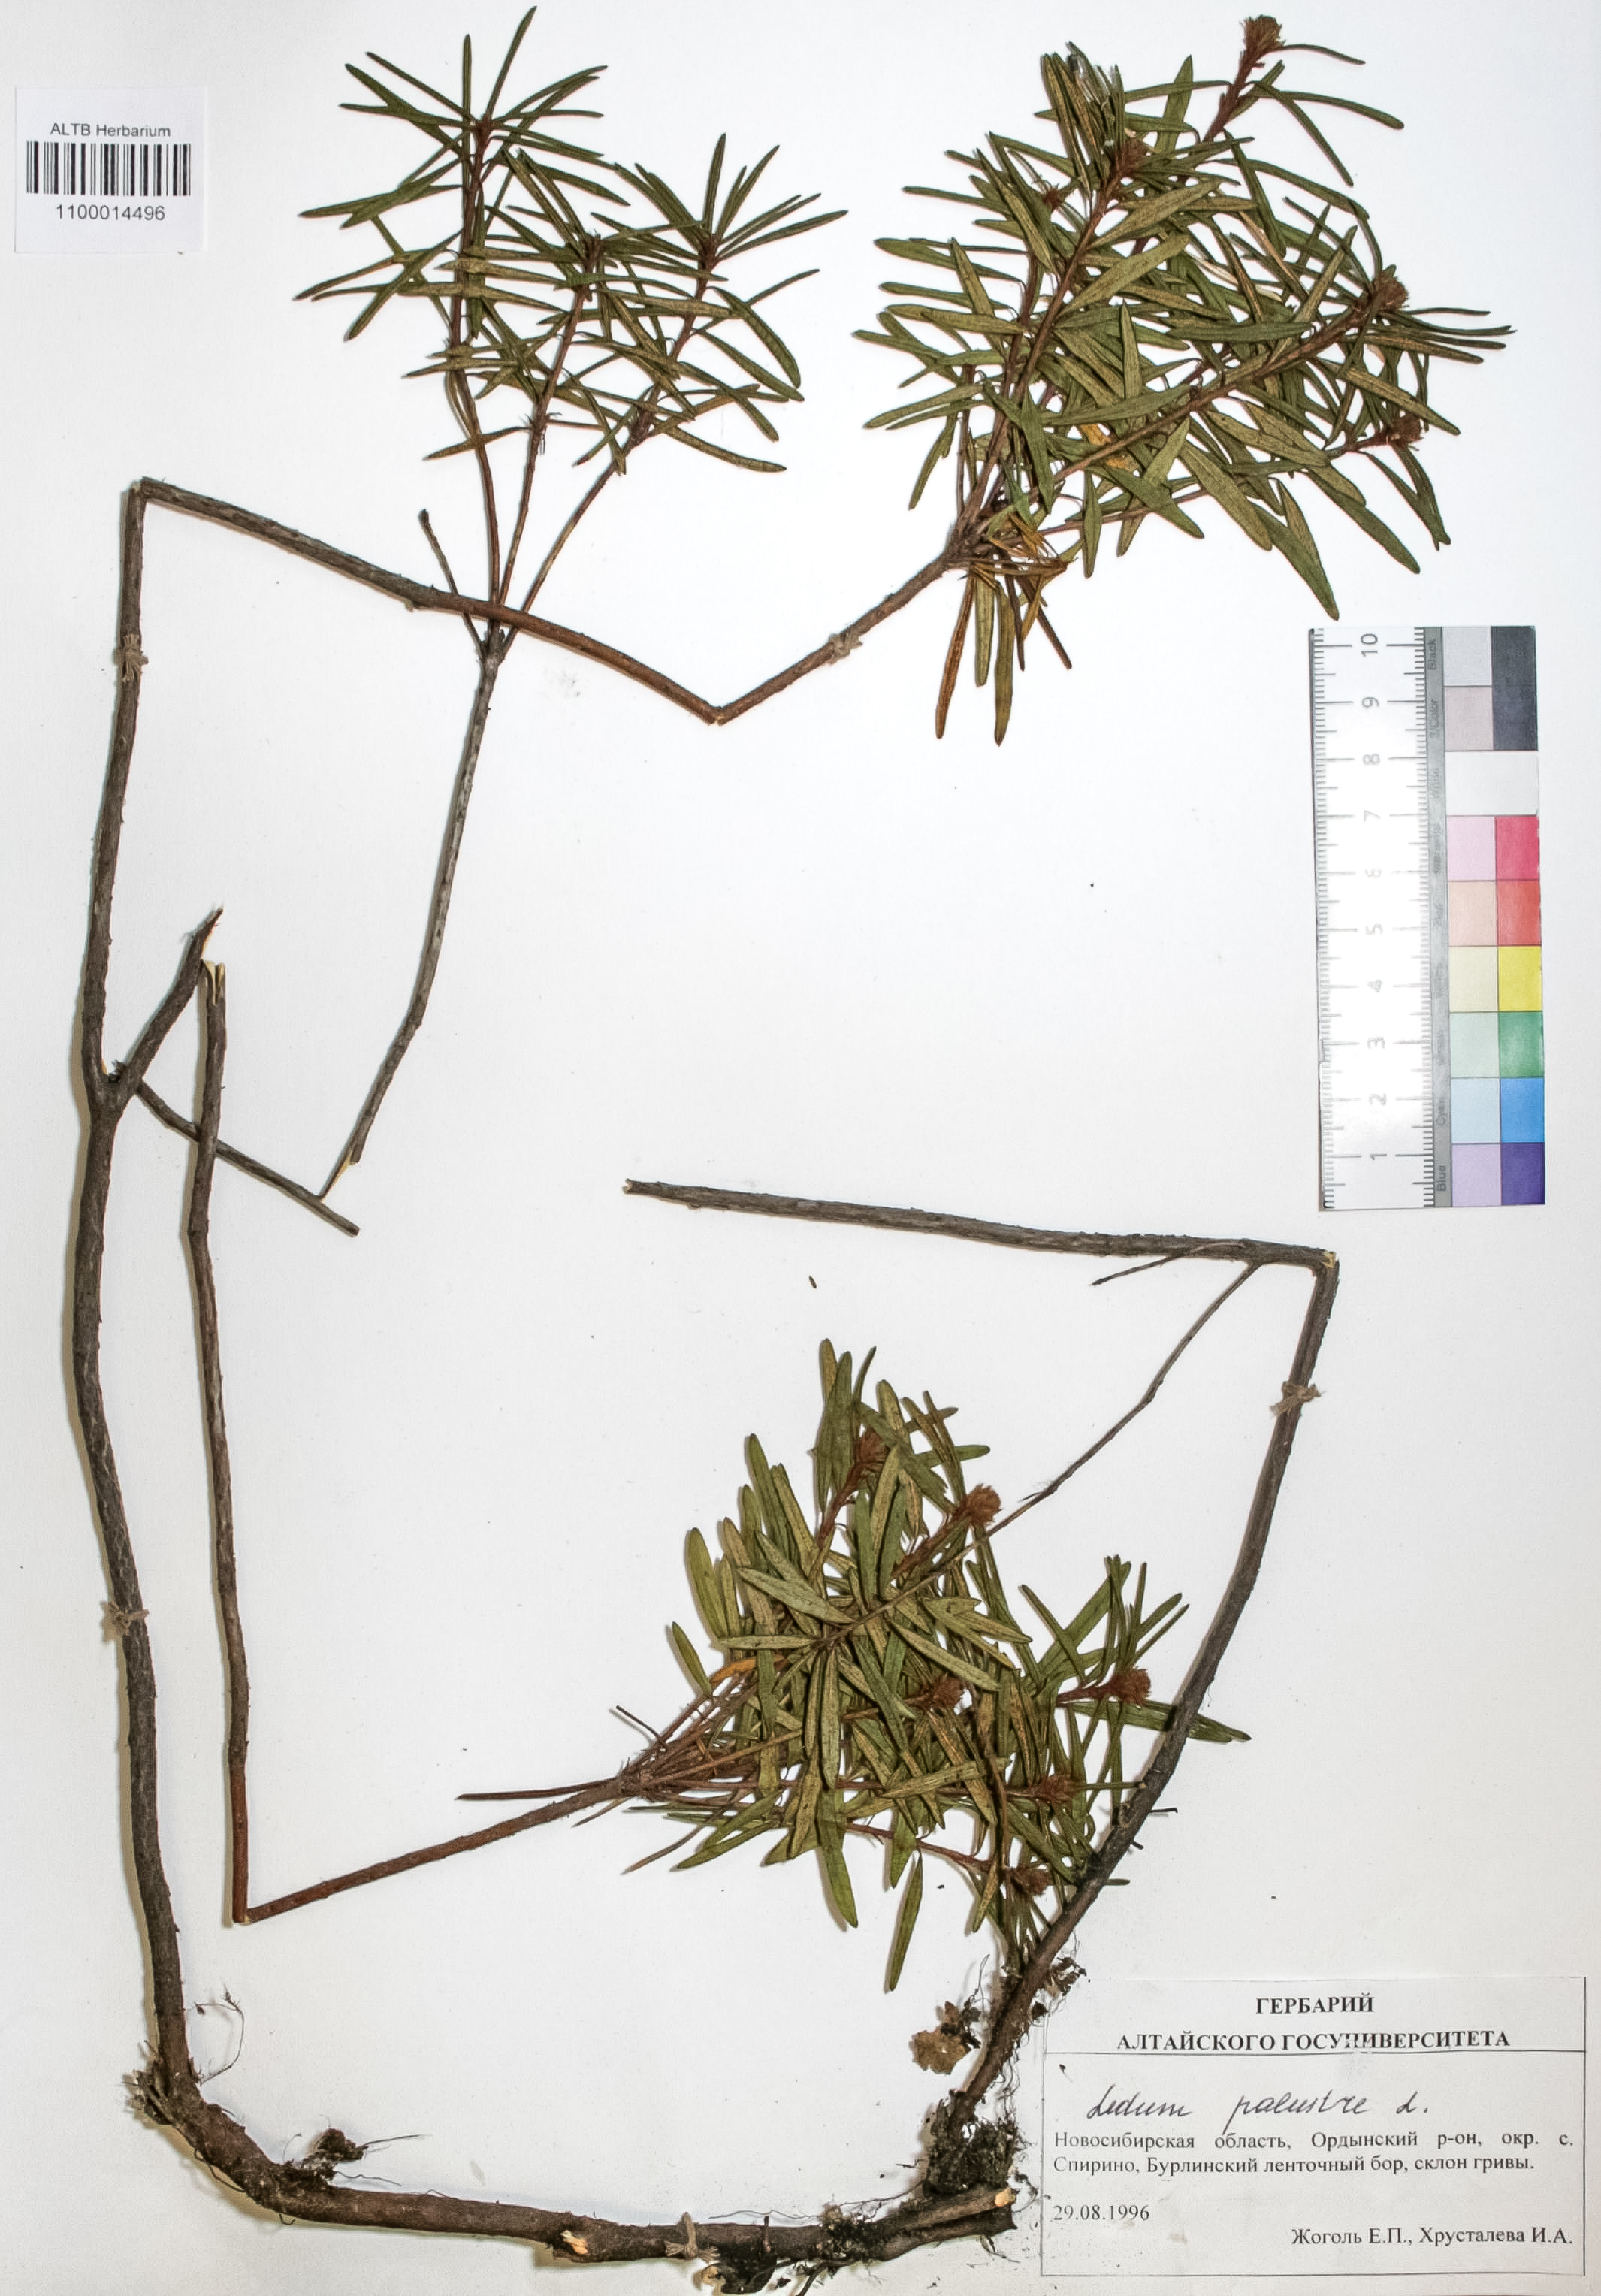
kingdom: Plantae
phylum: Tracheophyta
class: Magnoliopsida
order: Ericales
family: Ericaceae
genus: Rhododendron
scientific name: Rhododendron tomentosum
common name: Marsh labrador tea
